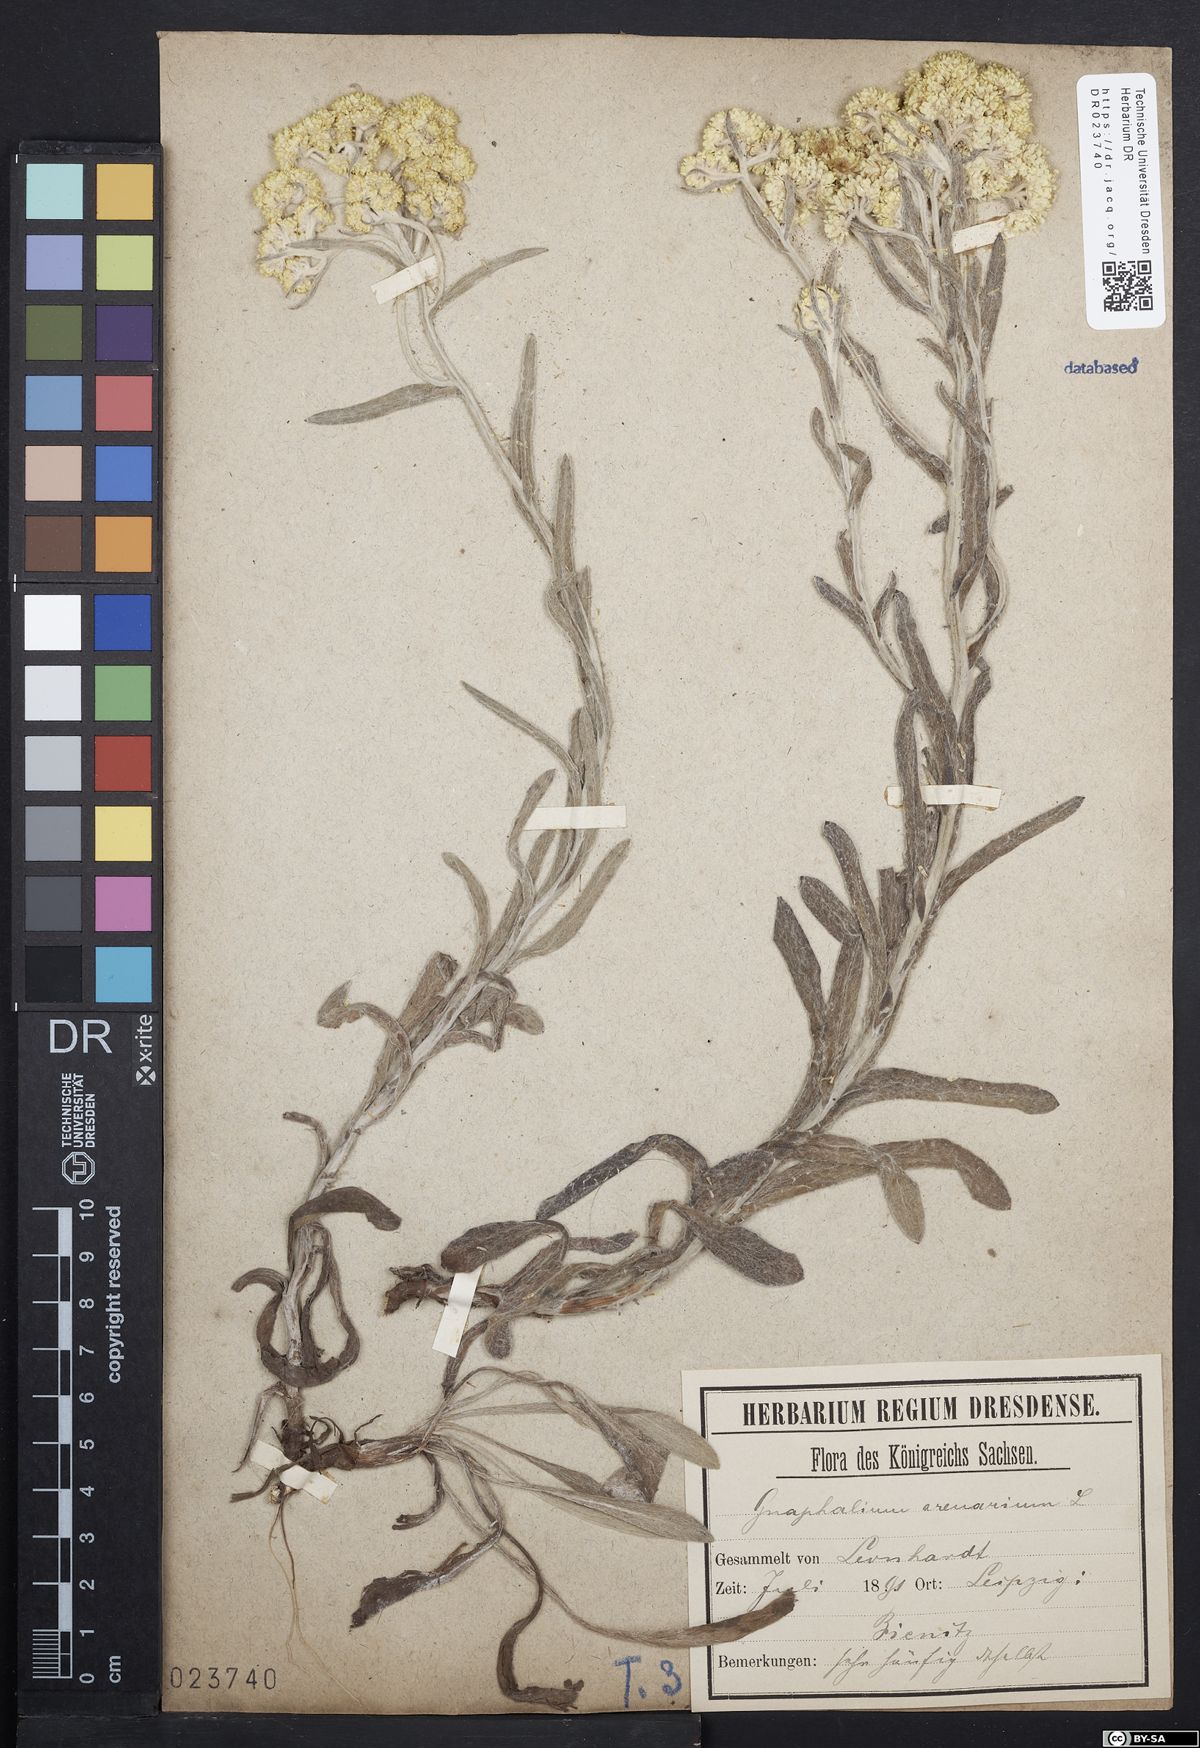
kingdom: Plantae
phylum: Tracheophyta
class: Magnoliopsida
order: Asterales
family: Asteraceae
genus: Helichrysum
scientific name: Helichrysum arenarium
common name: Strawflower
